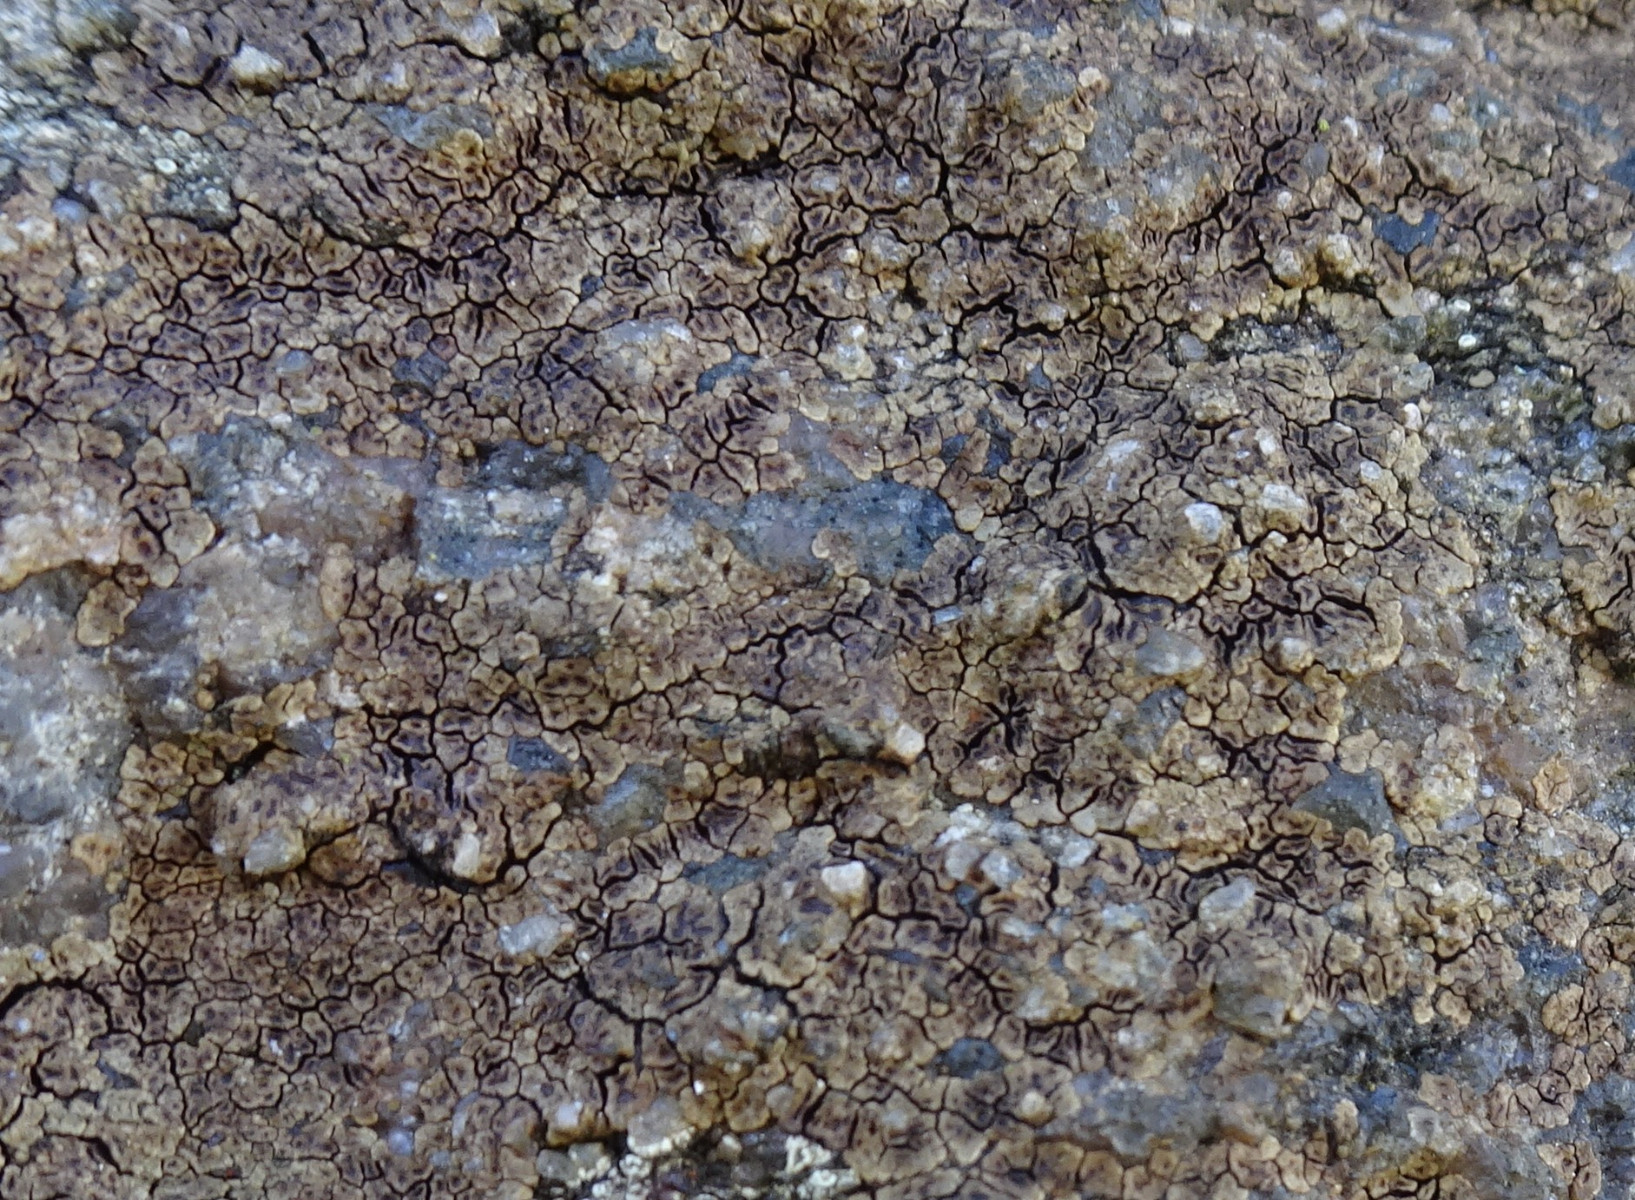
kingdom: Fungi
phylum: Ascomycota
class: Lecanoromycetes
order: Acarosporales
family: Acarosporaceae
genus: Acarospora
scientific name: Acarospora fuscata
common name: brun småsporelav
